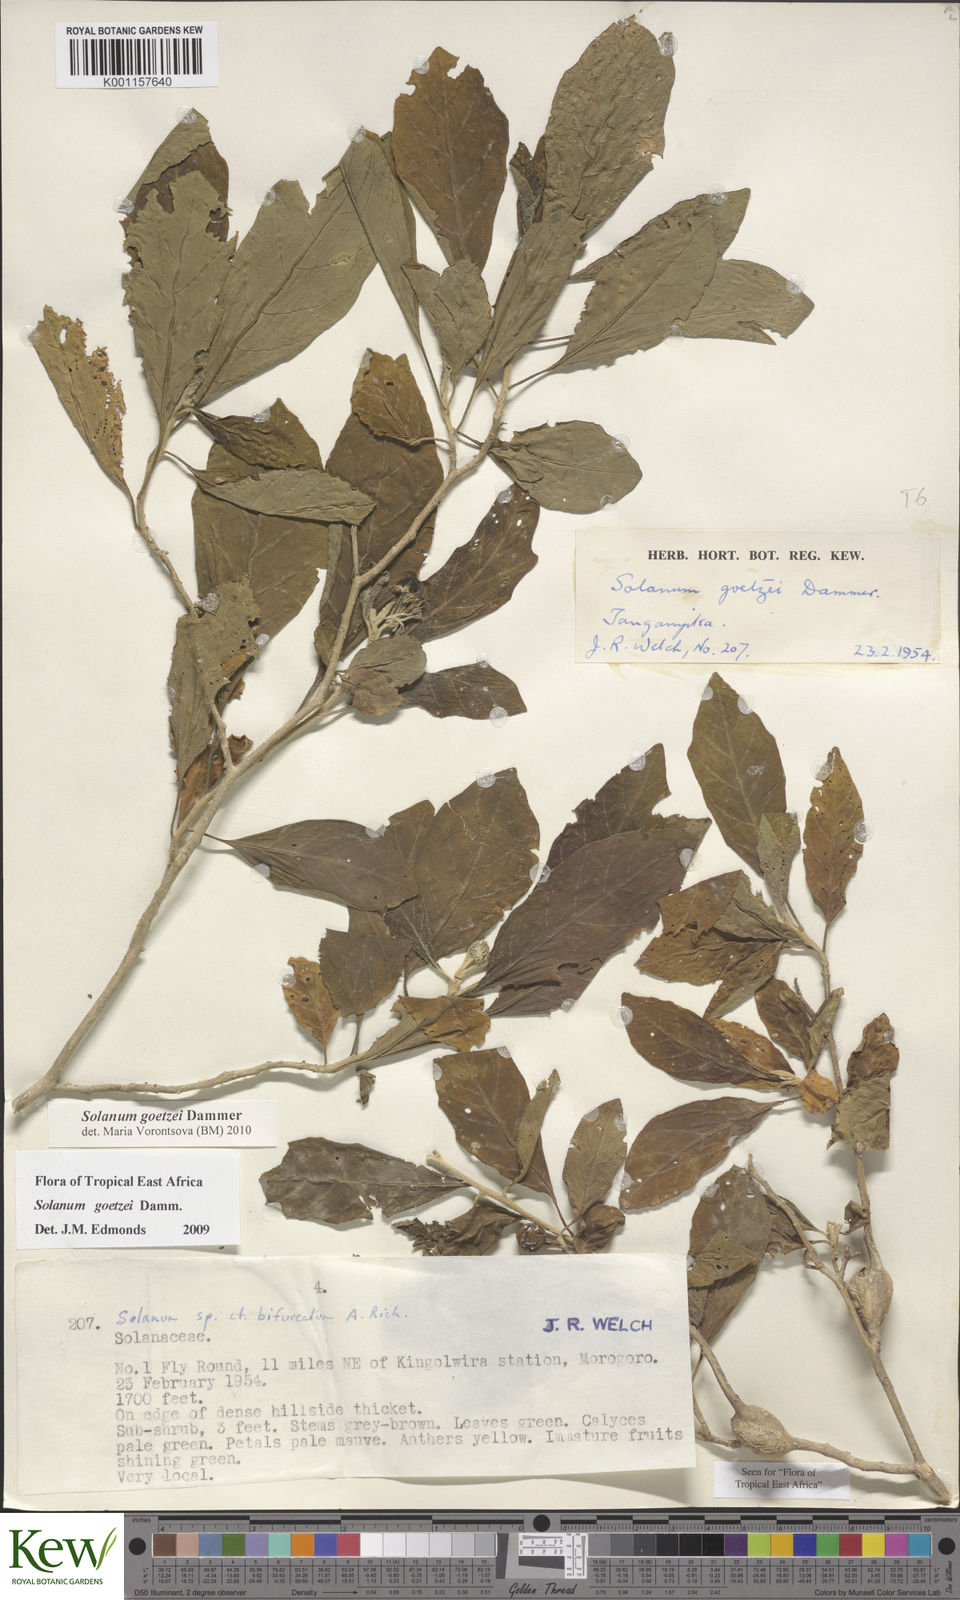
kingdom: Plantae
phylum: Tracheophyta
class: Magnoliopsida
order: Solanales
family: Solanaceae
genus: Solanum
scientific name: Solanum goetzei
